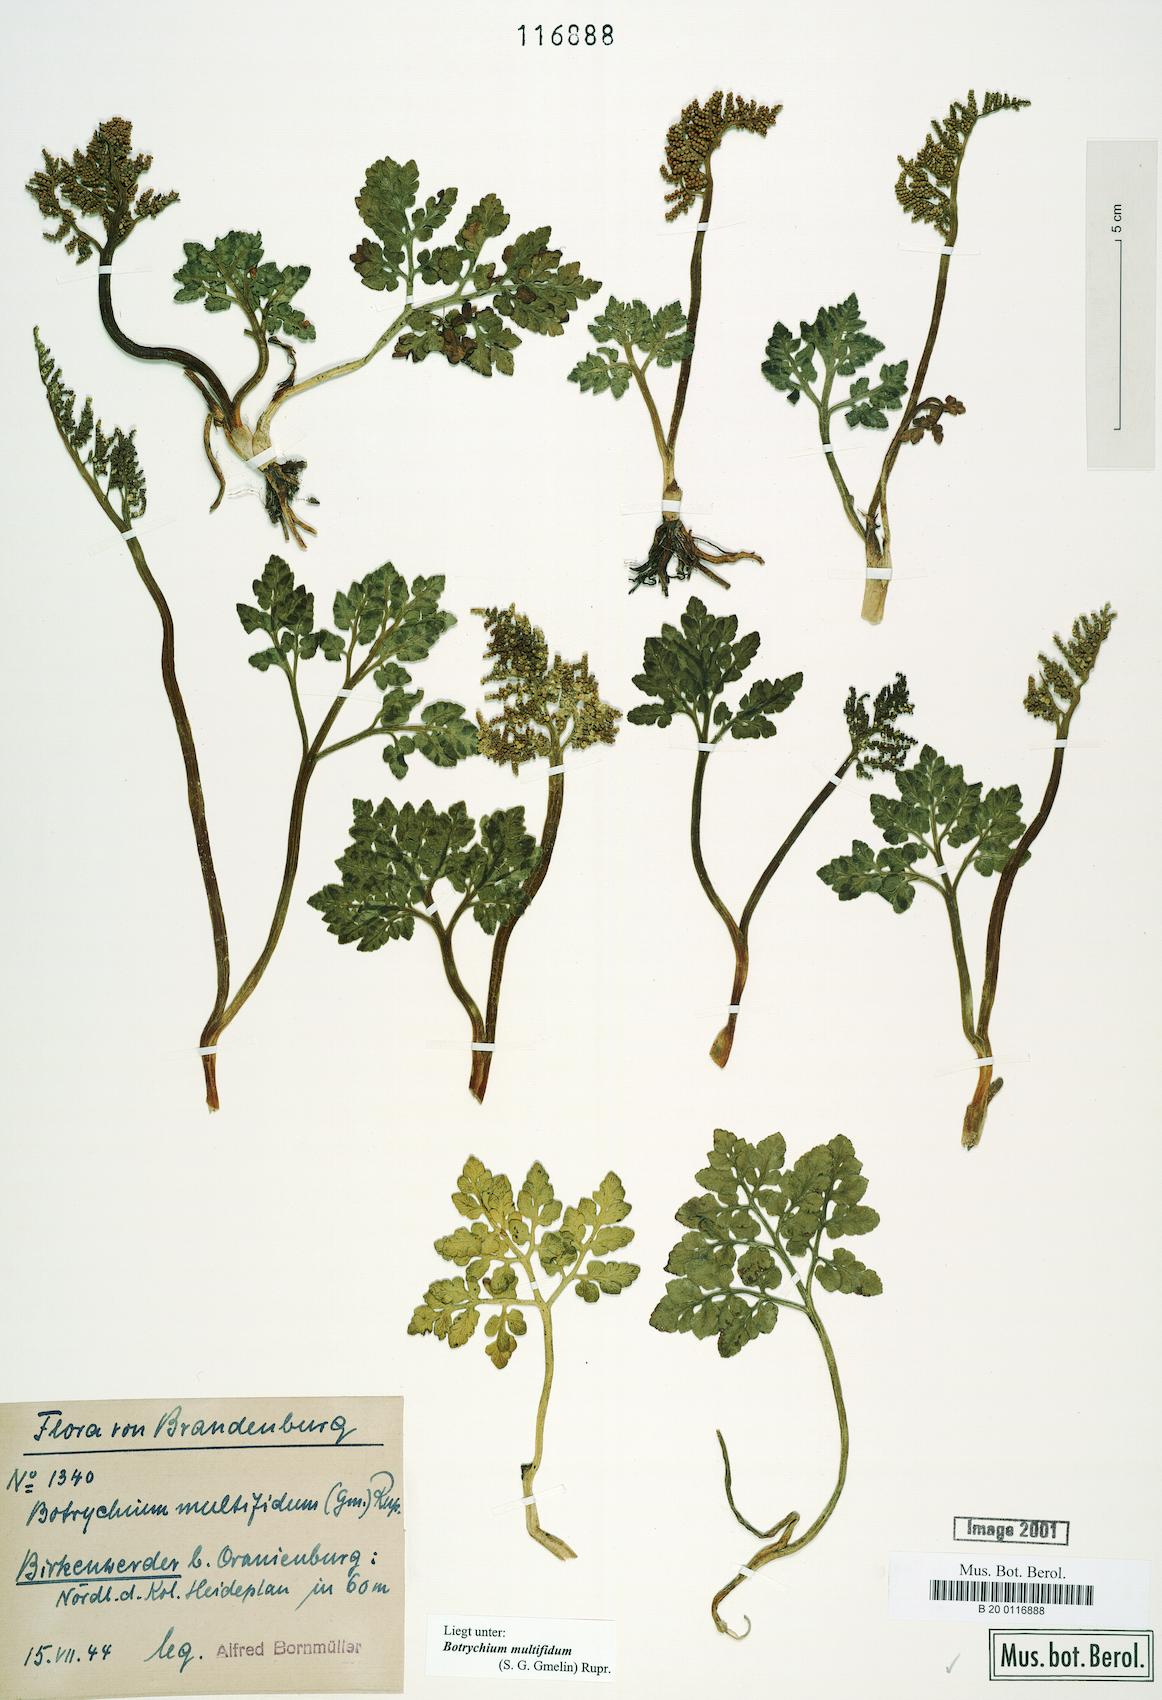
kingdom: Plantae
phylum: Tracheophyta
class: Polypodiopsida
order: Ophioglossales
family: Ophioglossaceae
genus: Sceptridium
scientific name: Sceptridium multifidum
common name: Leathery grape fern
